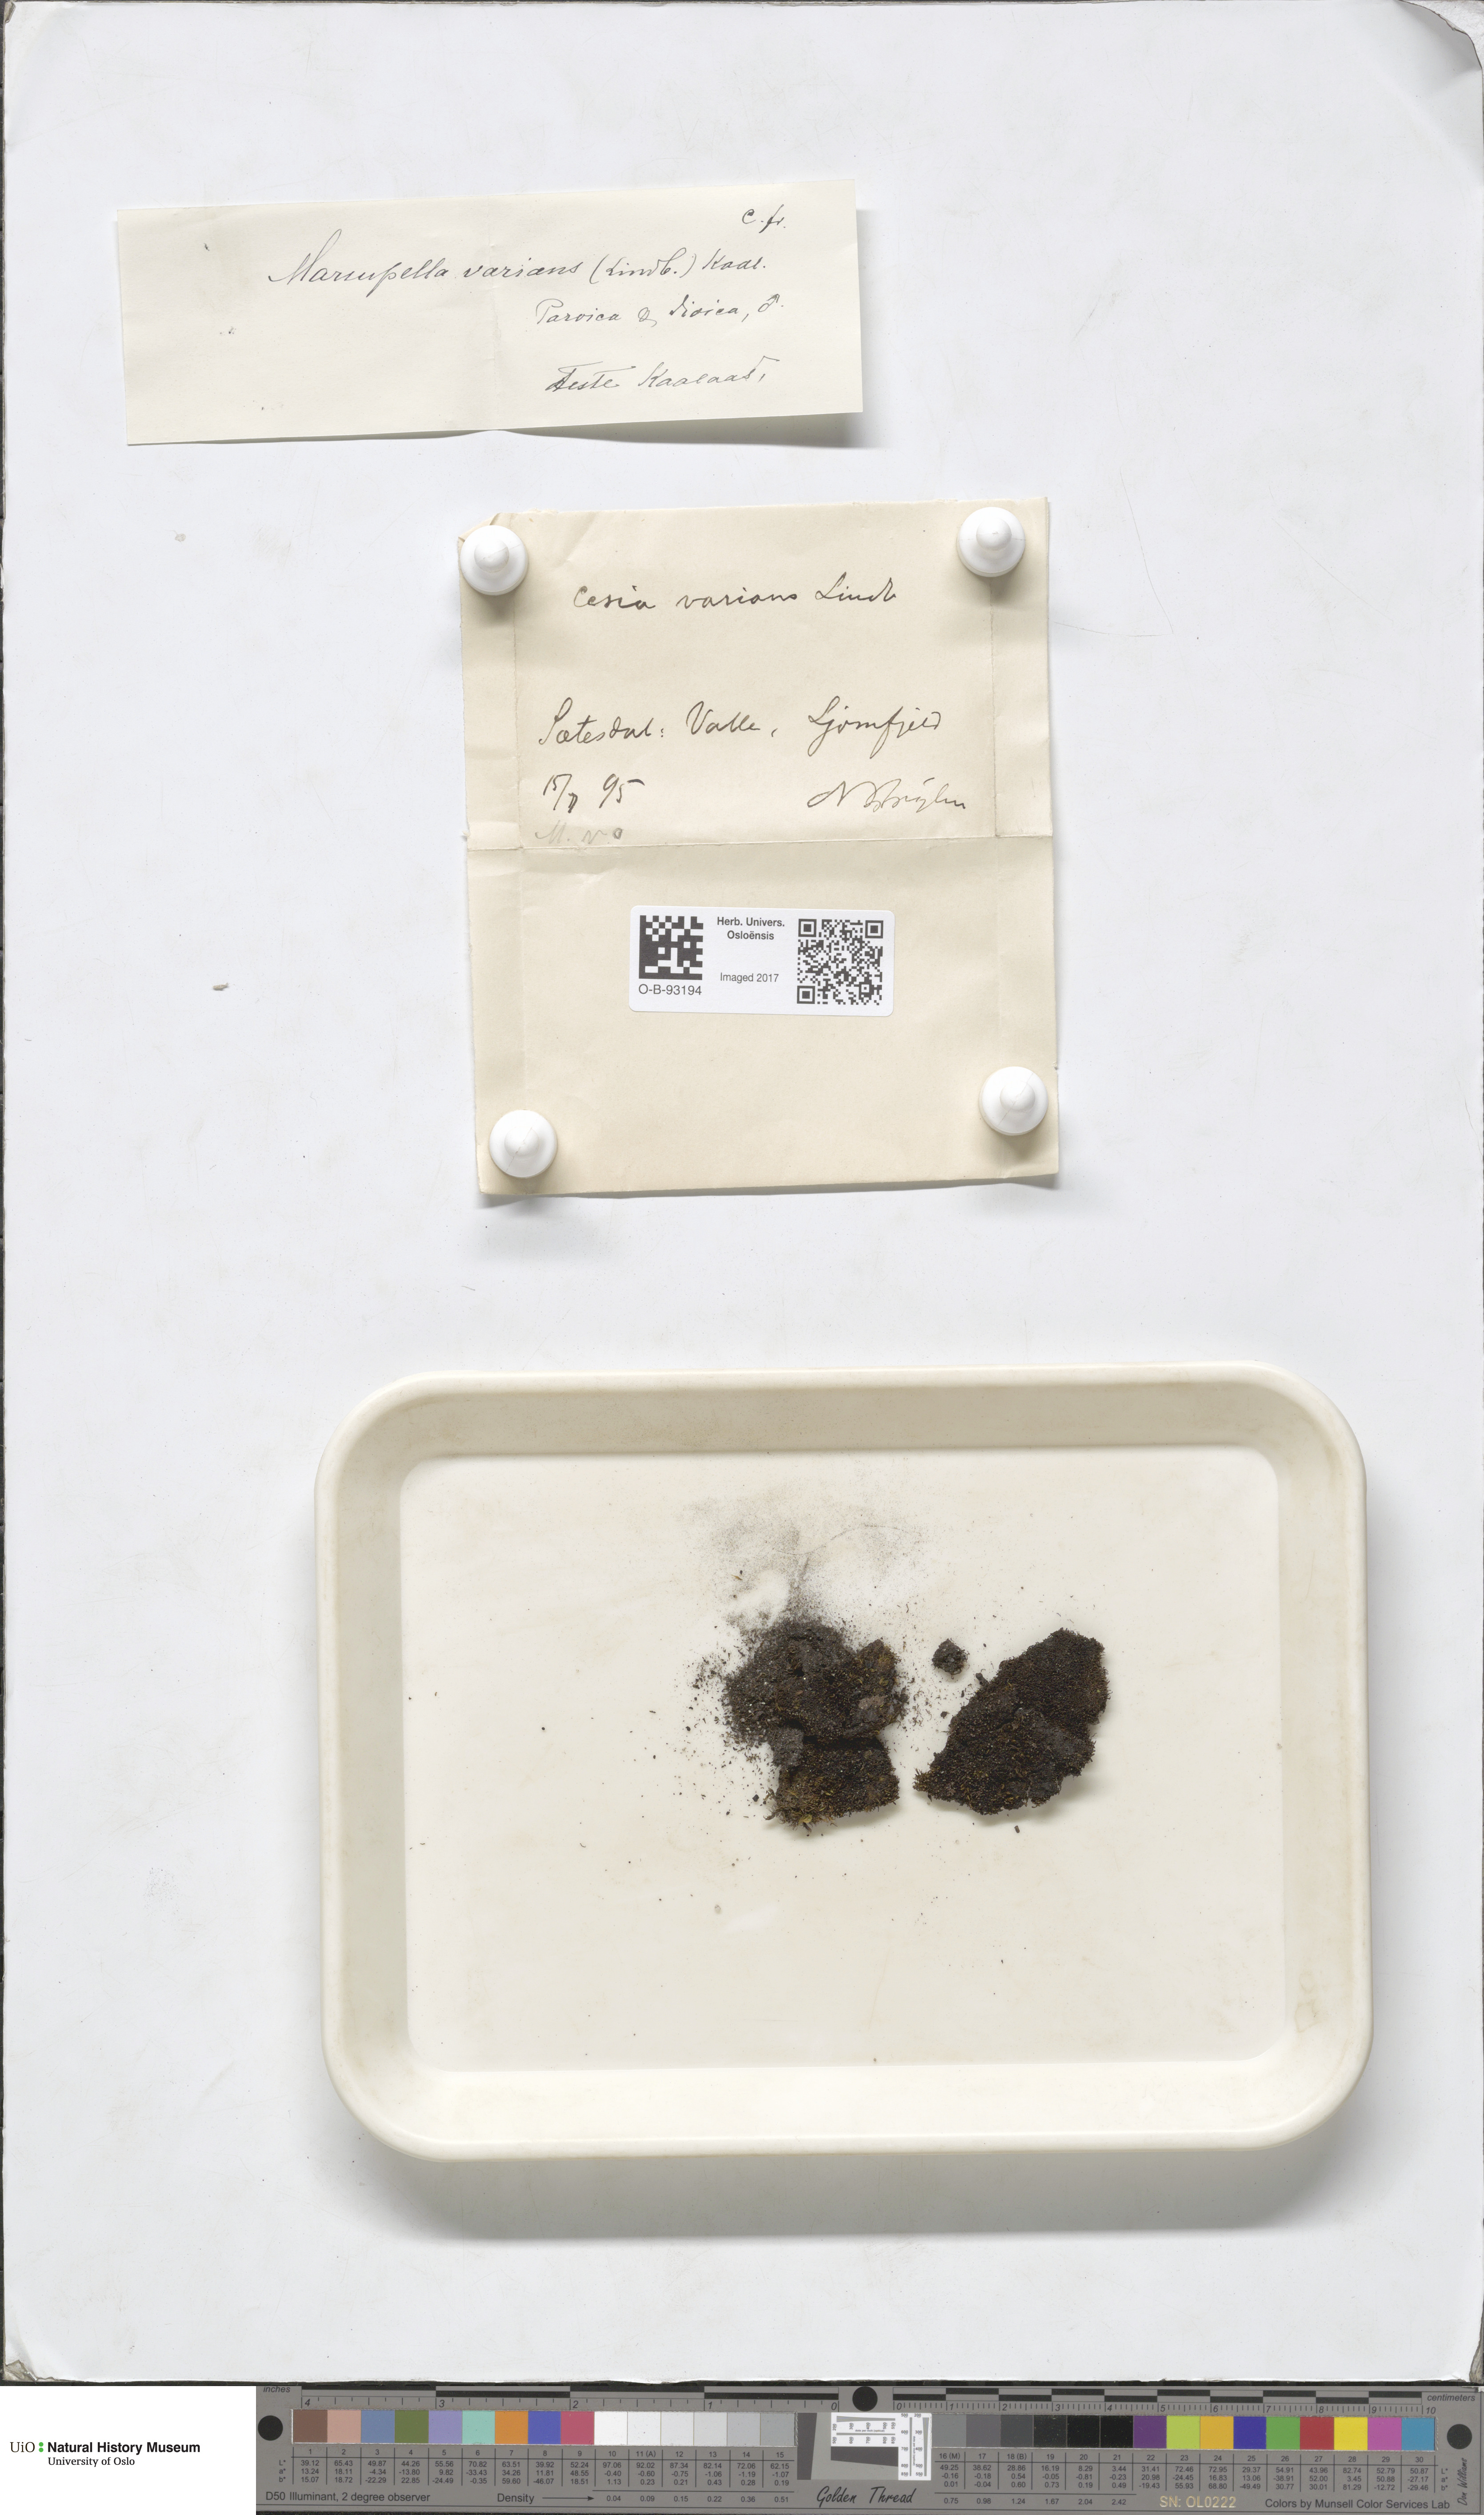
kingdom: Plantae
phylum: Marchantiophyta
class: Jungermanniopsida
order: Jungermanniales
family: Gymnomitriaceae
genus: Gymnomitrion
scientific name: Gymnomitrion brevissimum
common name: Snow rustwort
